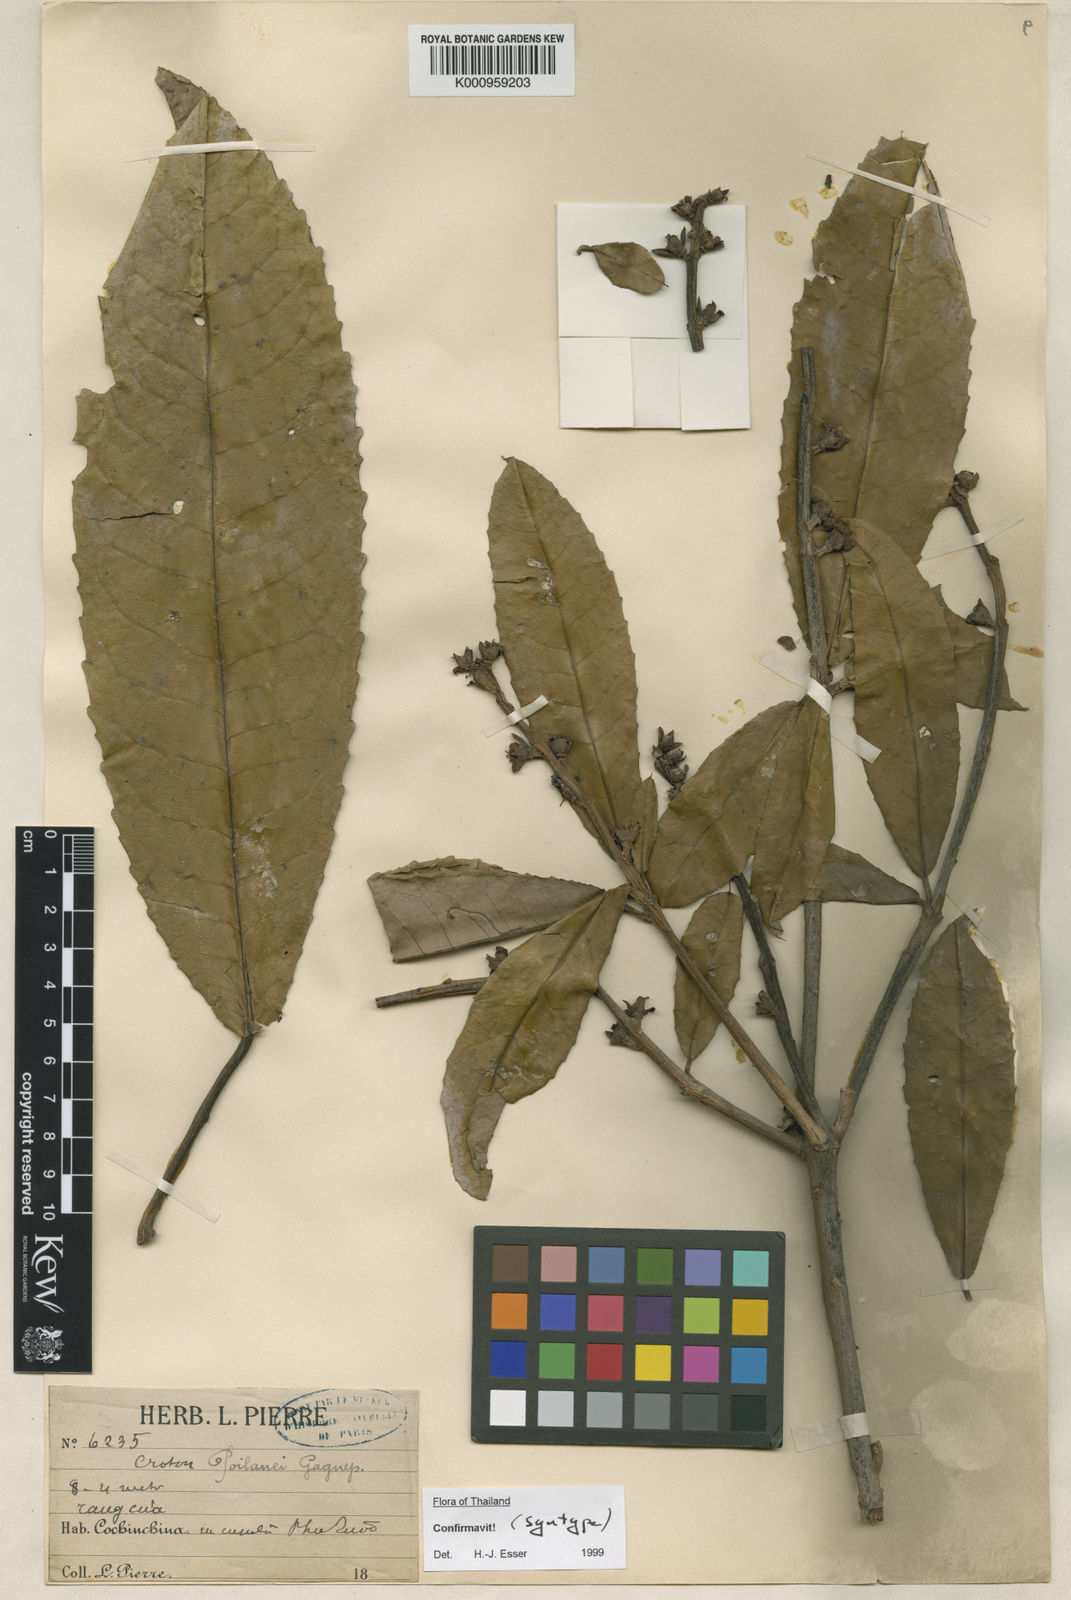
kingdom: Plantae
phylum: Tracheophyta
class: Magnoliopsida
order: Malpighiales
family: Euphorbiaceae
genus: Croton
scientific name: Croton poilanei
